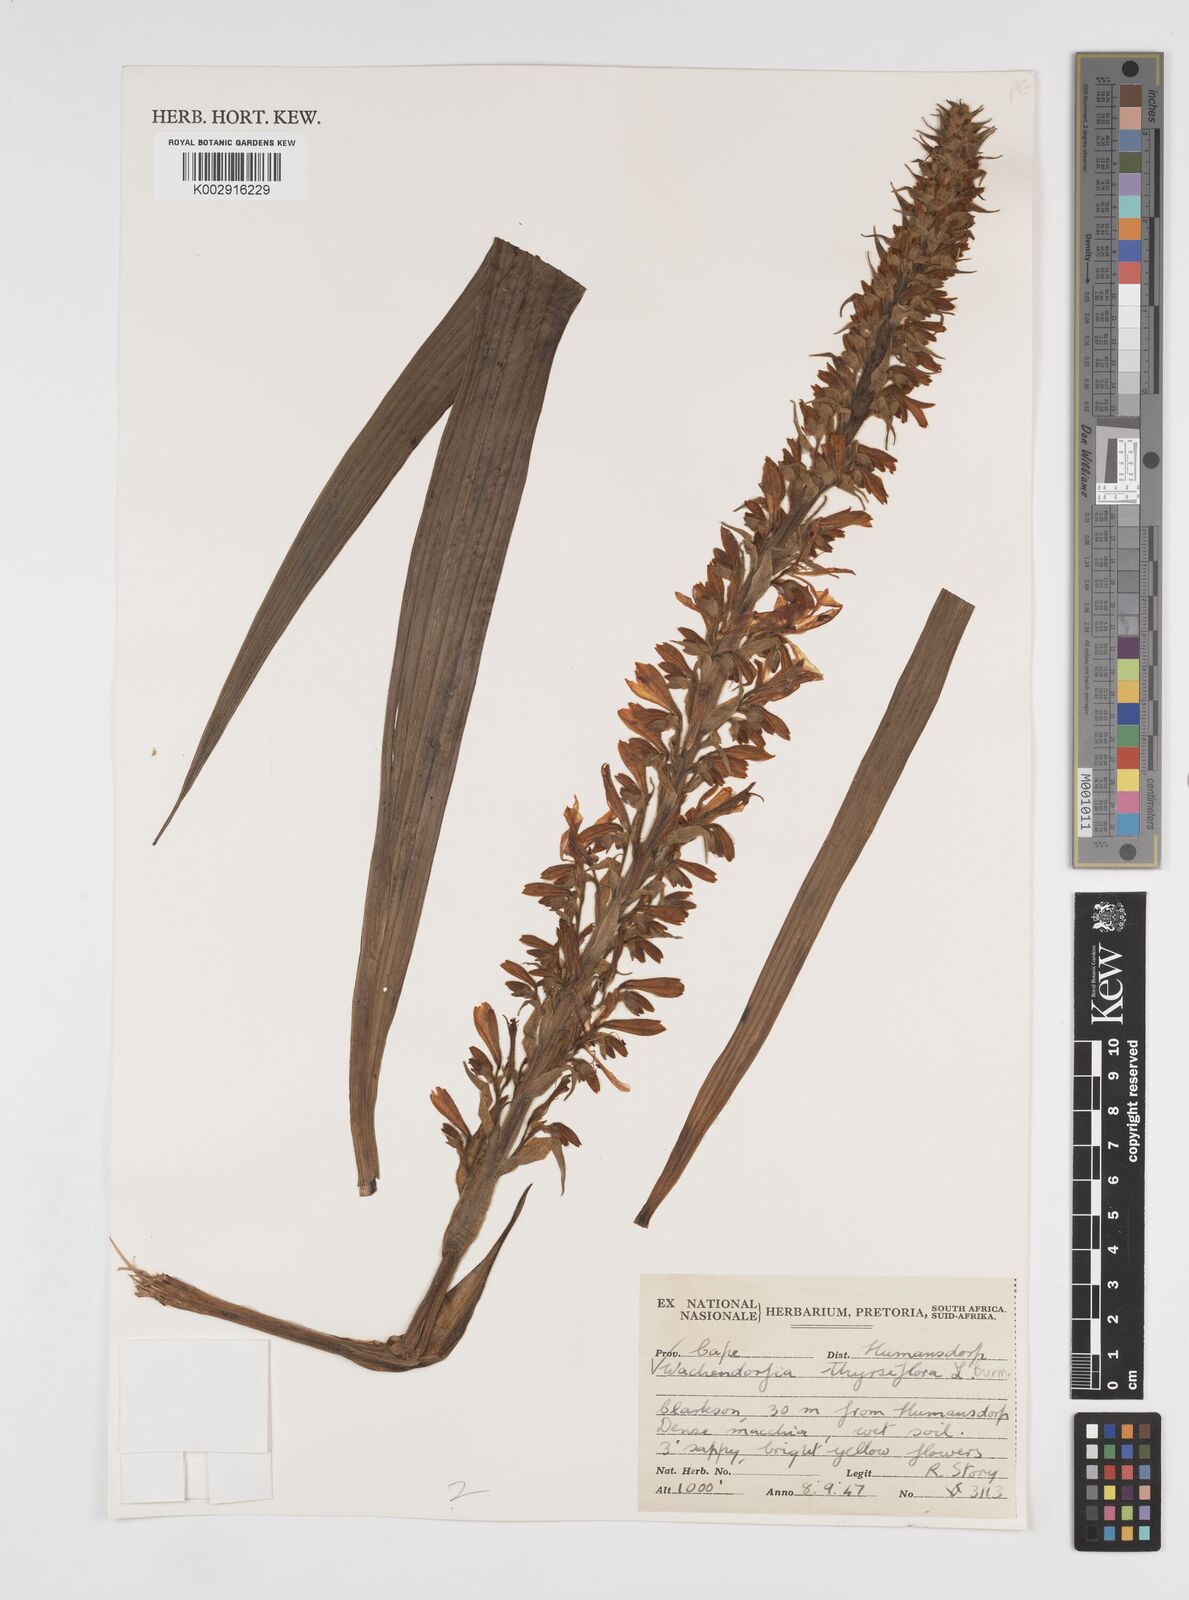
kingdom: Plantae
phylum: Tracheophyta
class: Liliopsida
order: Commelinales
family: Haemodoraceae
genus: Wachendorfia
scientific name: Wachendorfia thyrsiflora
